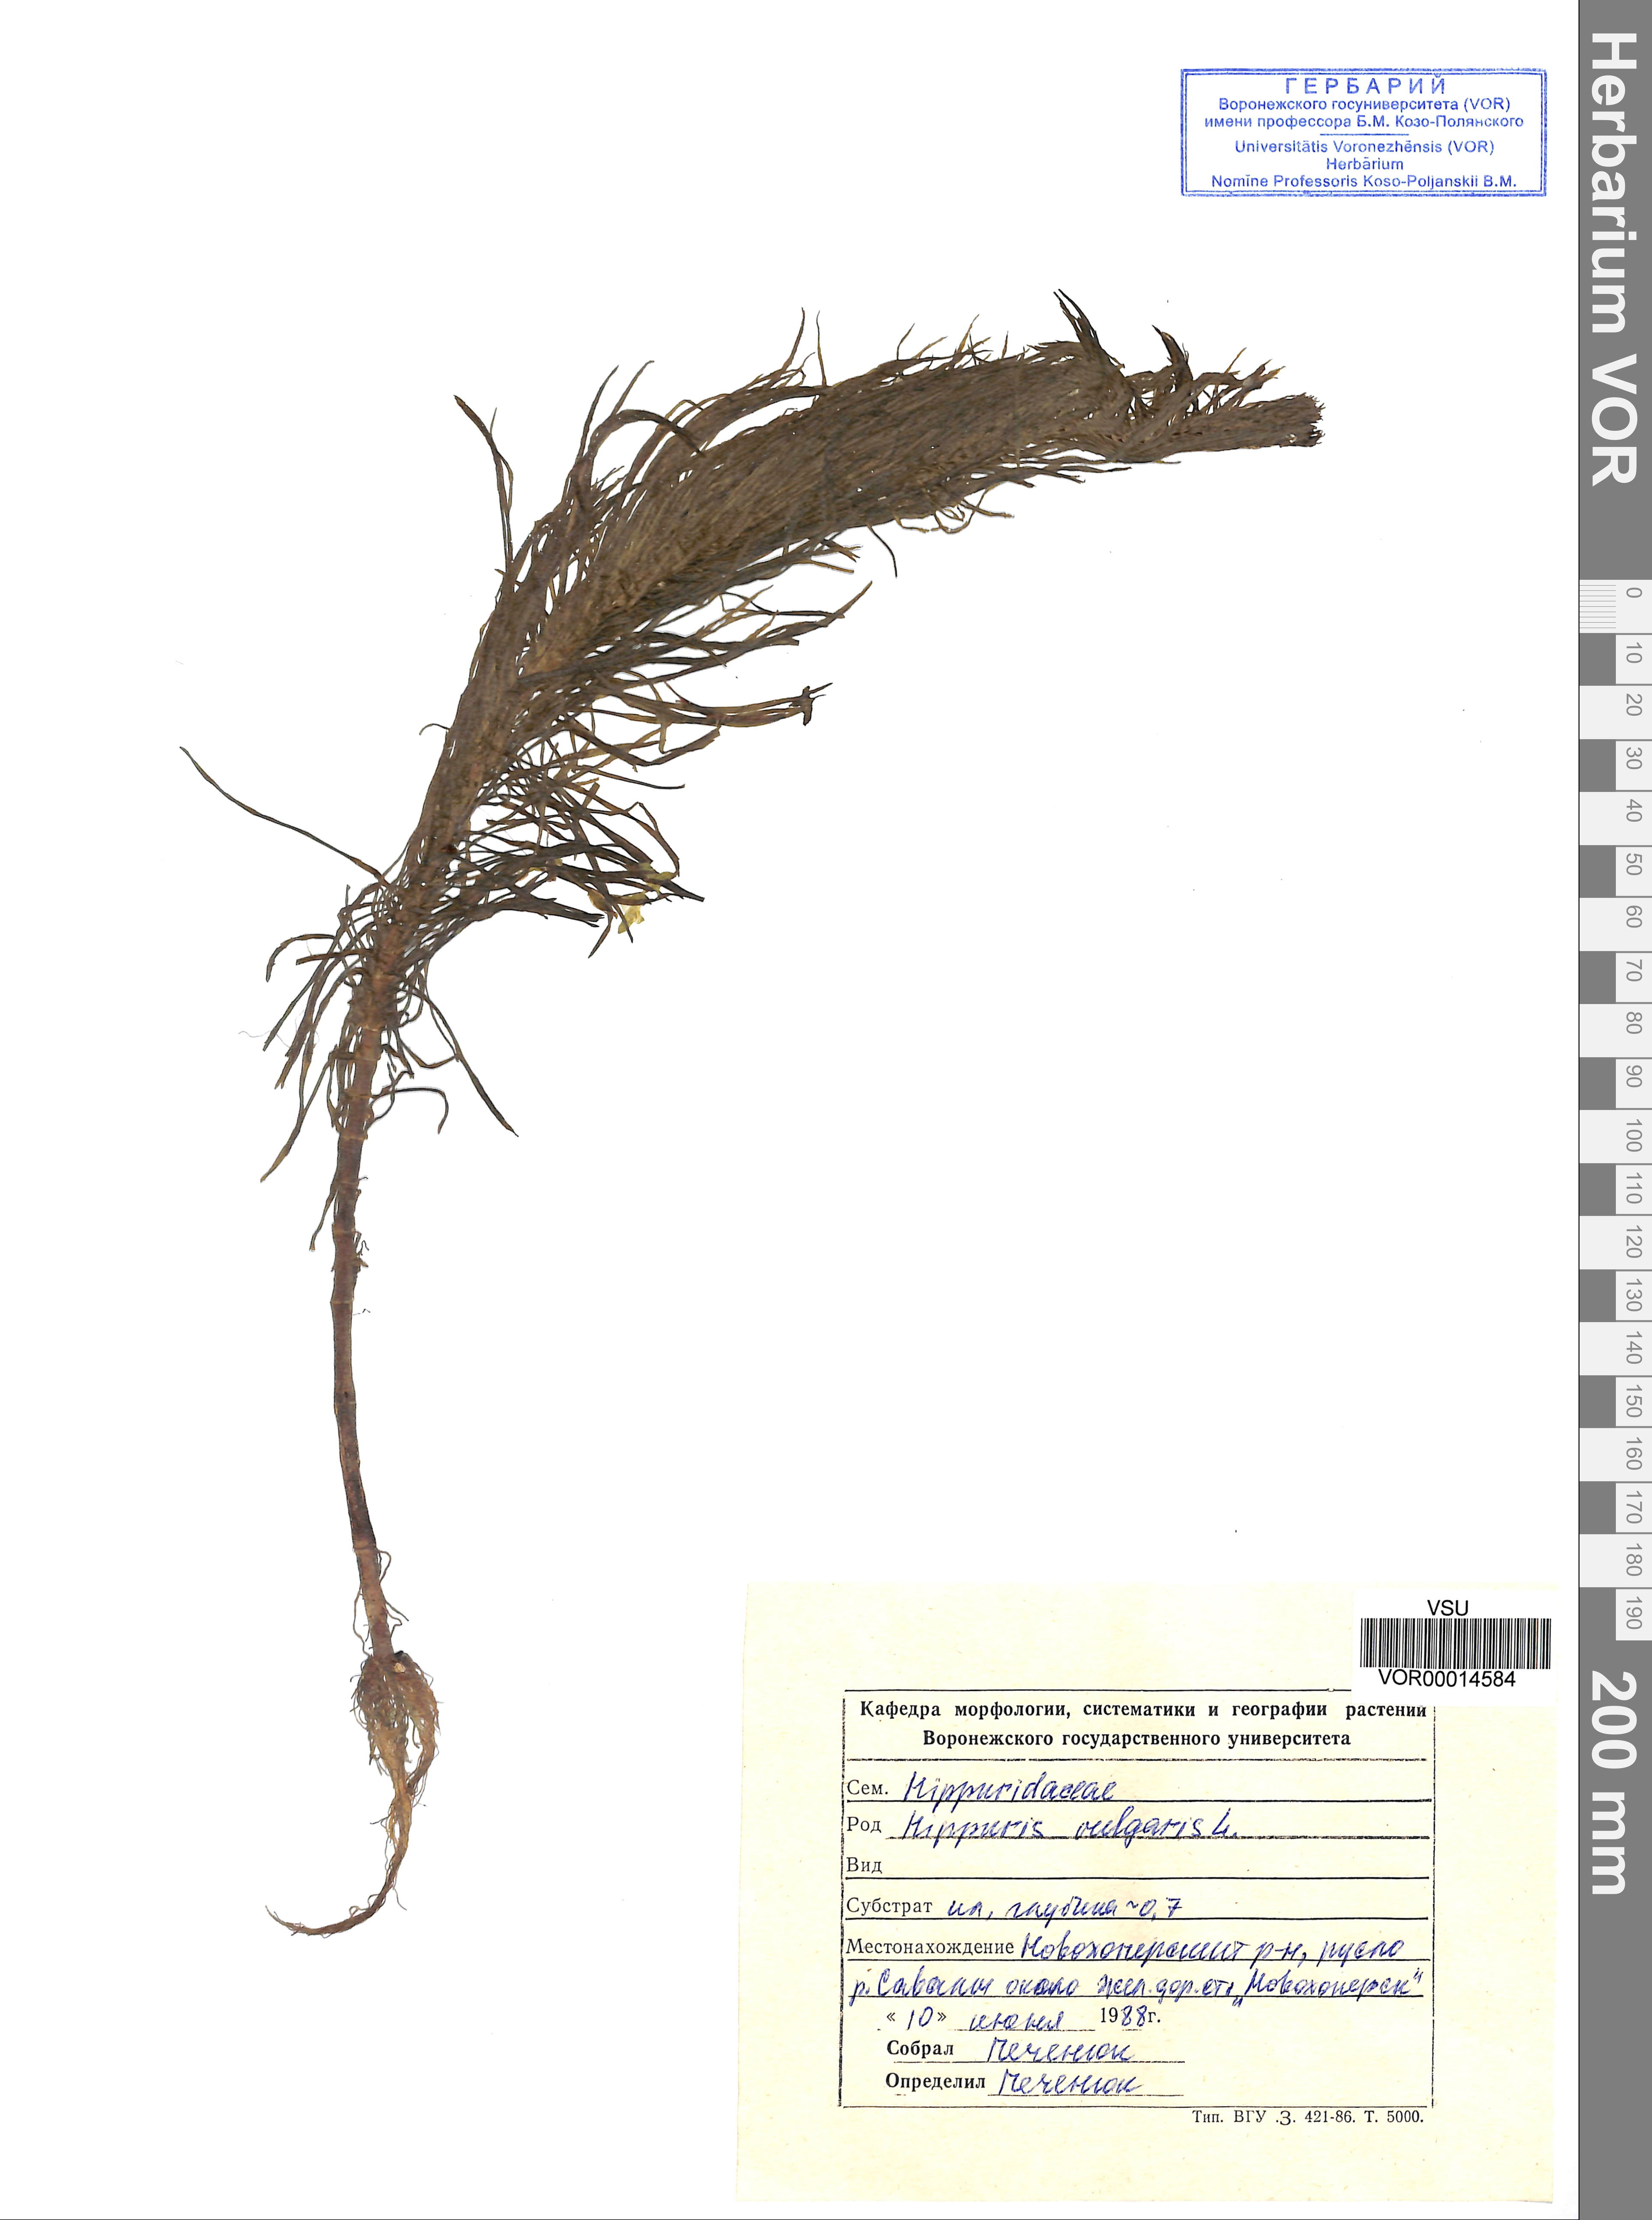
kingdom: Plantae
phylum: Tracheophyta
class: Magnoliopsida
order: Lamiales
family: Plantaginaceae
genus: Hippuris
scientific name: Hippuris vulgaris
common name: Mare's-tail
